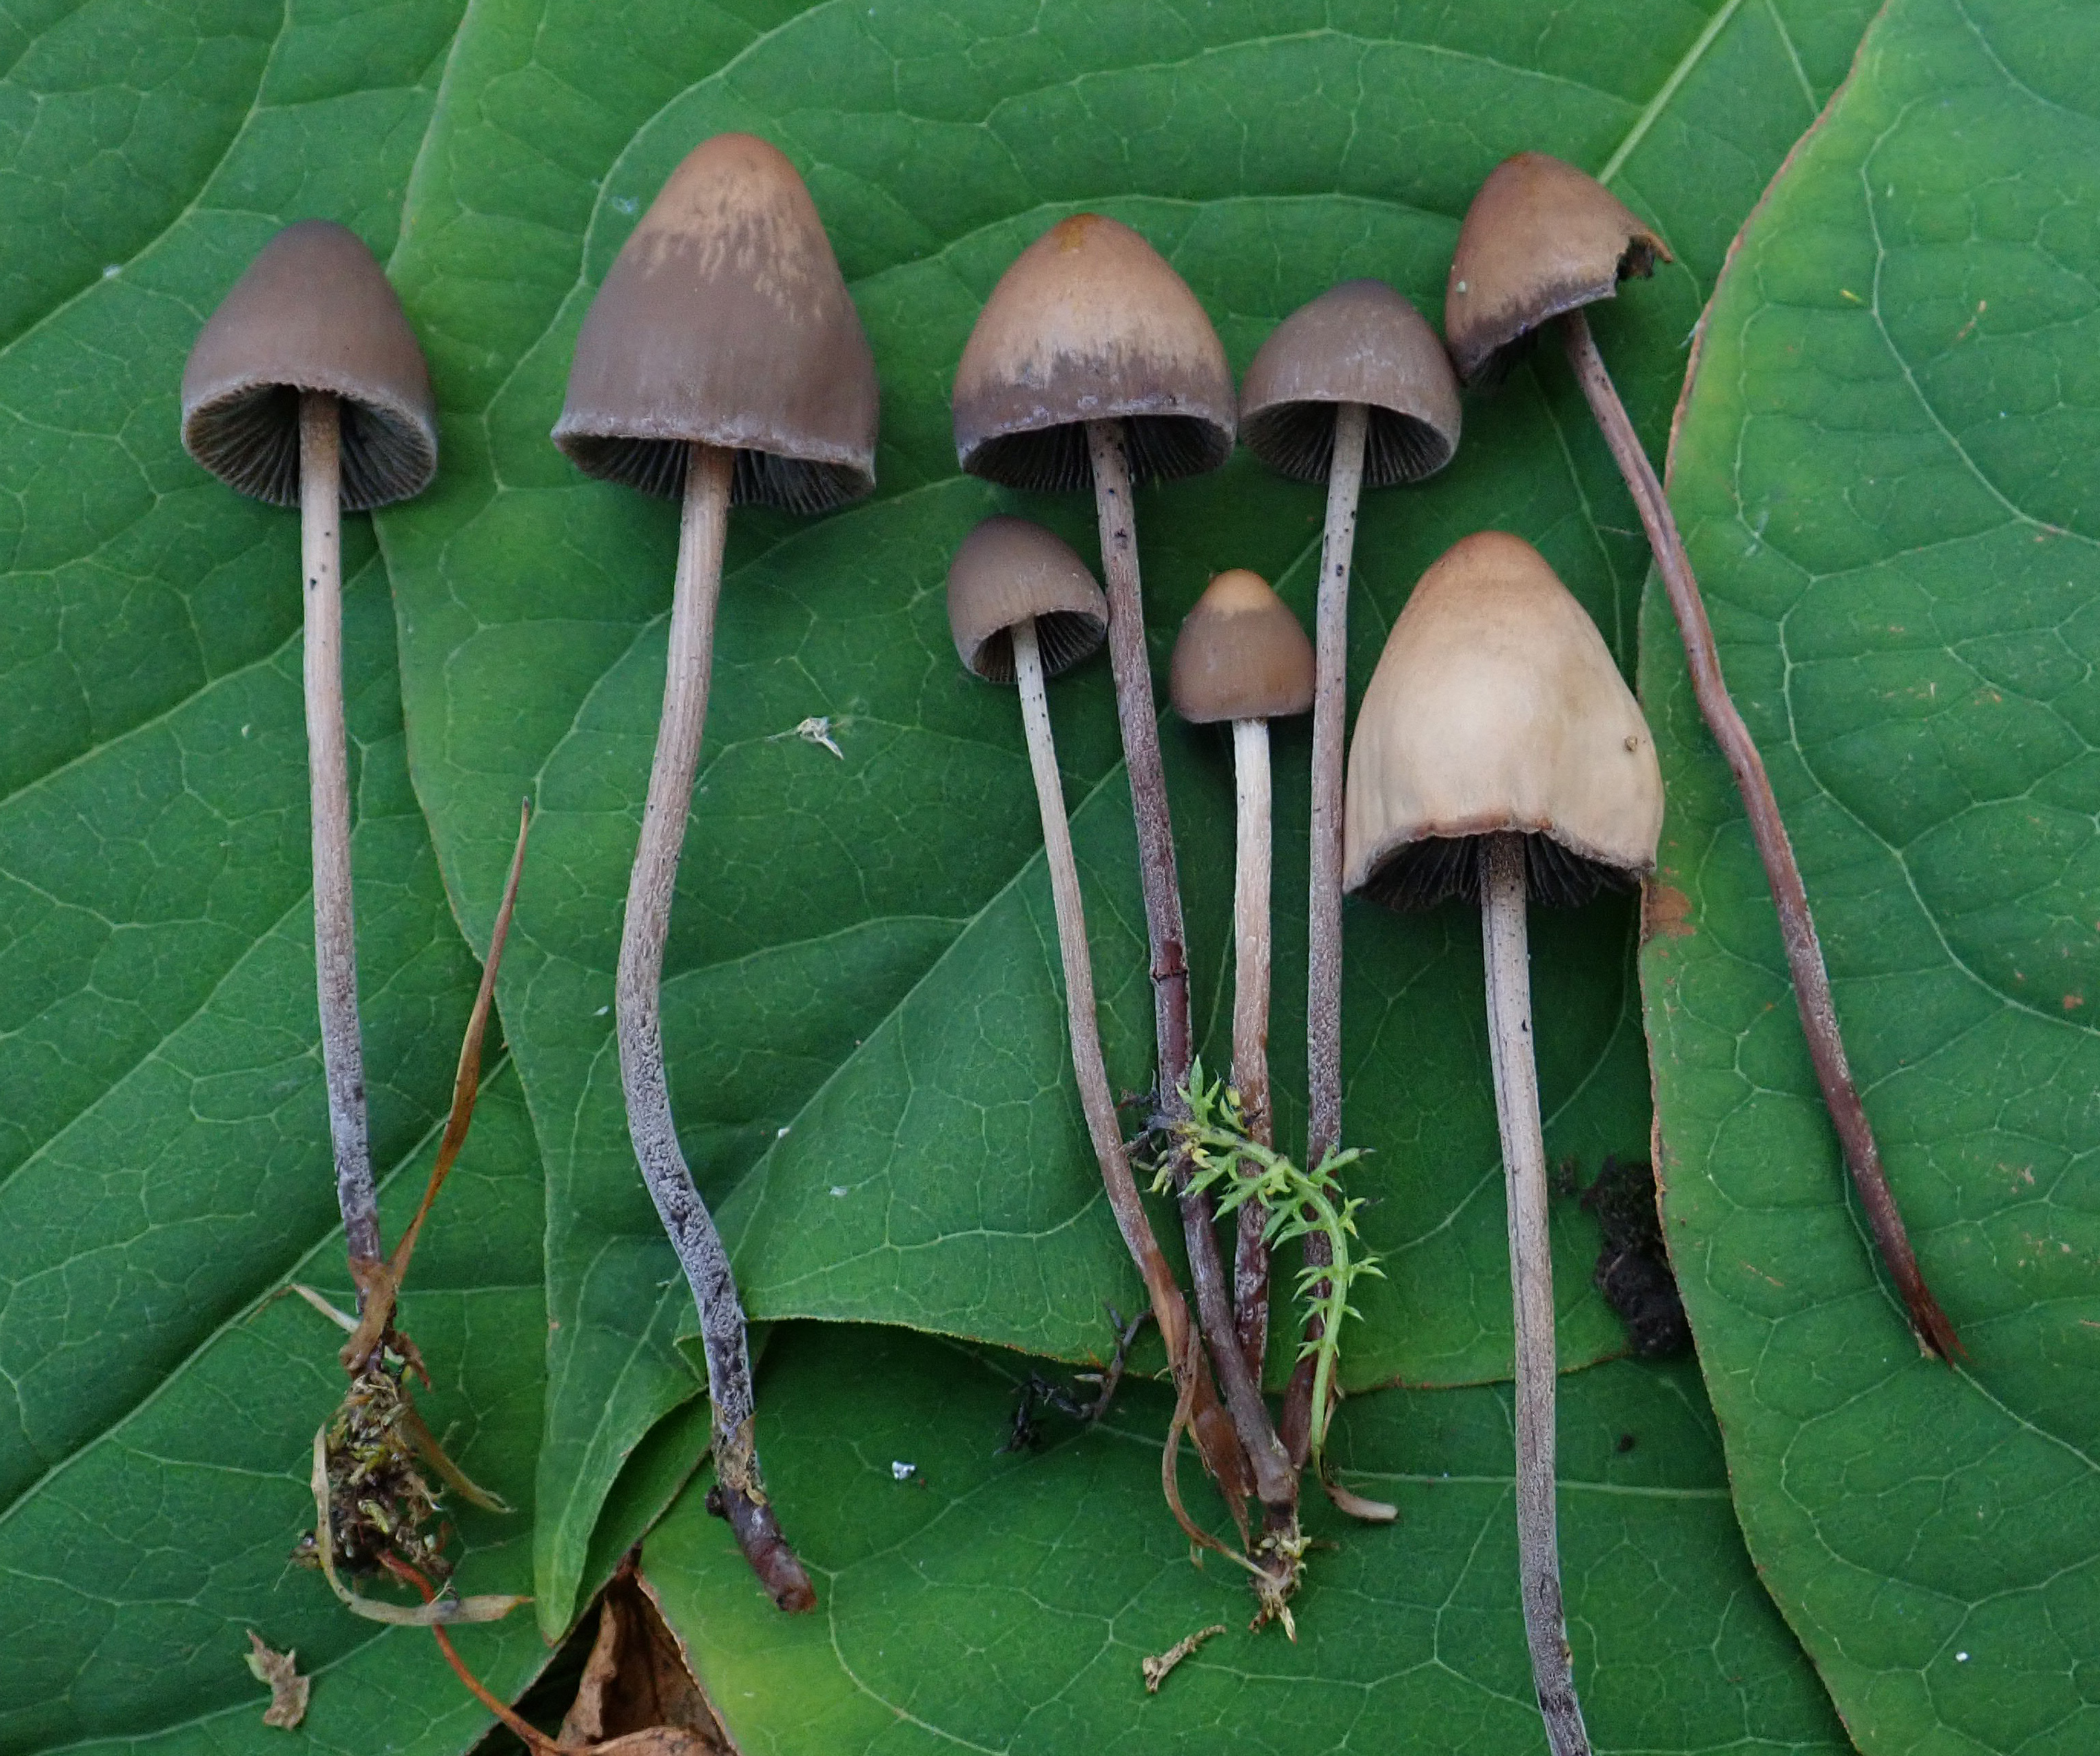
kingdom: Fungi
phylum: Basidiomycota
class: Agaricomycetes
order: Agaricales
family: Bolbitiaceae
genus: Panaeolus
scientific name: Panaeolus papilionaceus
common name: Petticoat mottlegill
